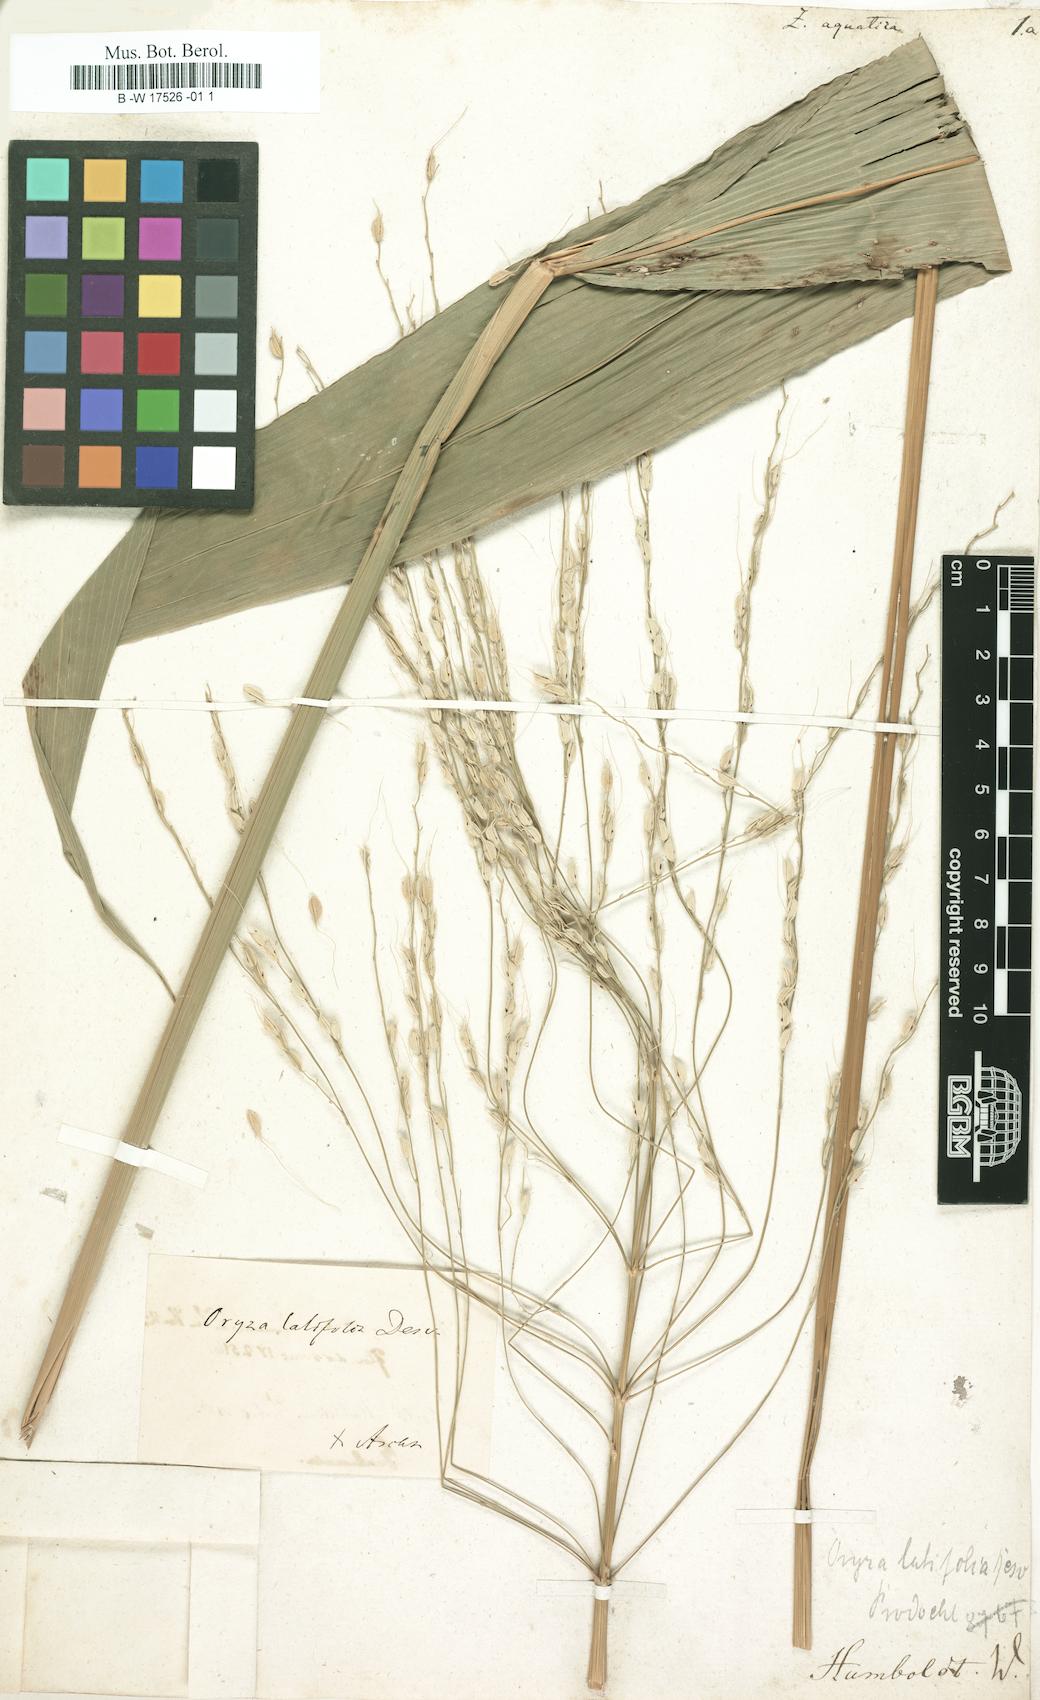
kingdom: Plantae
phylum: Tracheophyta
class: Liliopsida
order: Poales
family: Poaceae
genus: Zizania
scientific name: Zizania aquatica
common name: Annual wildrice
